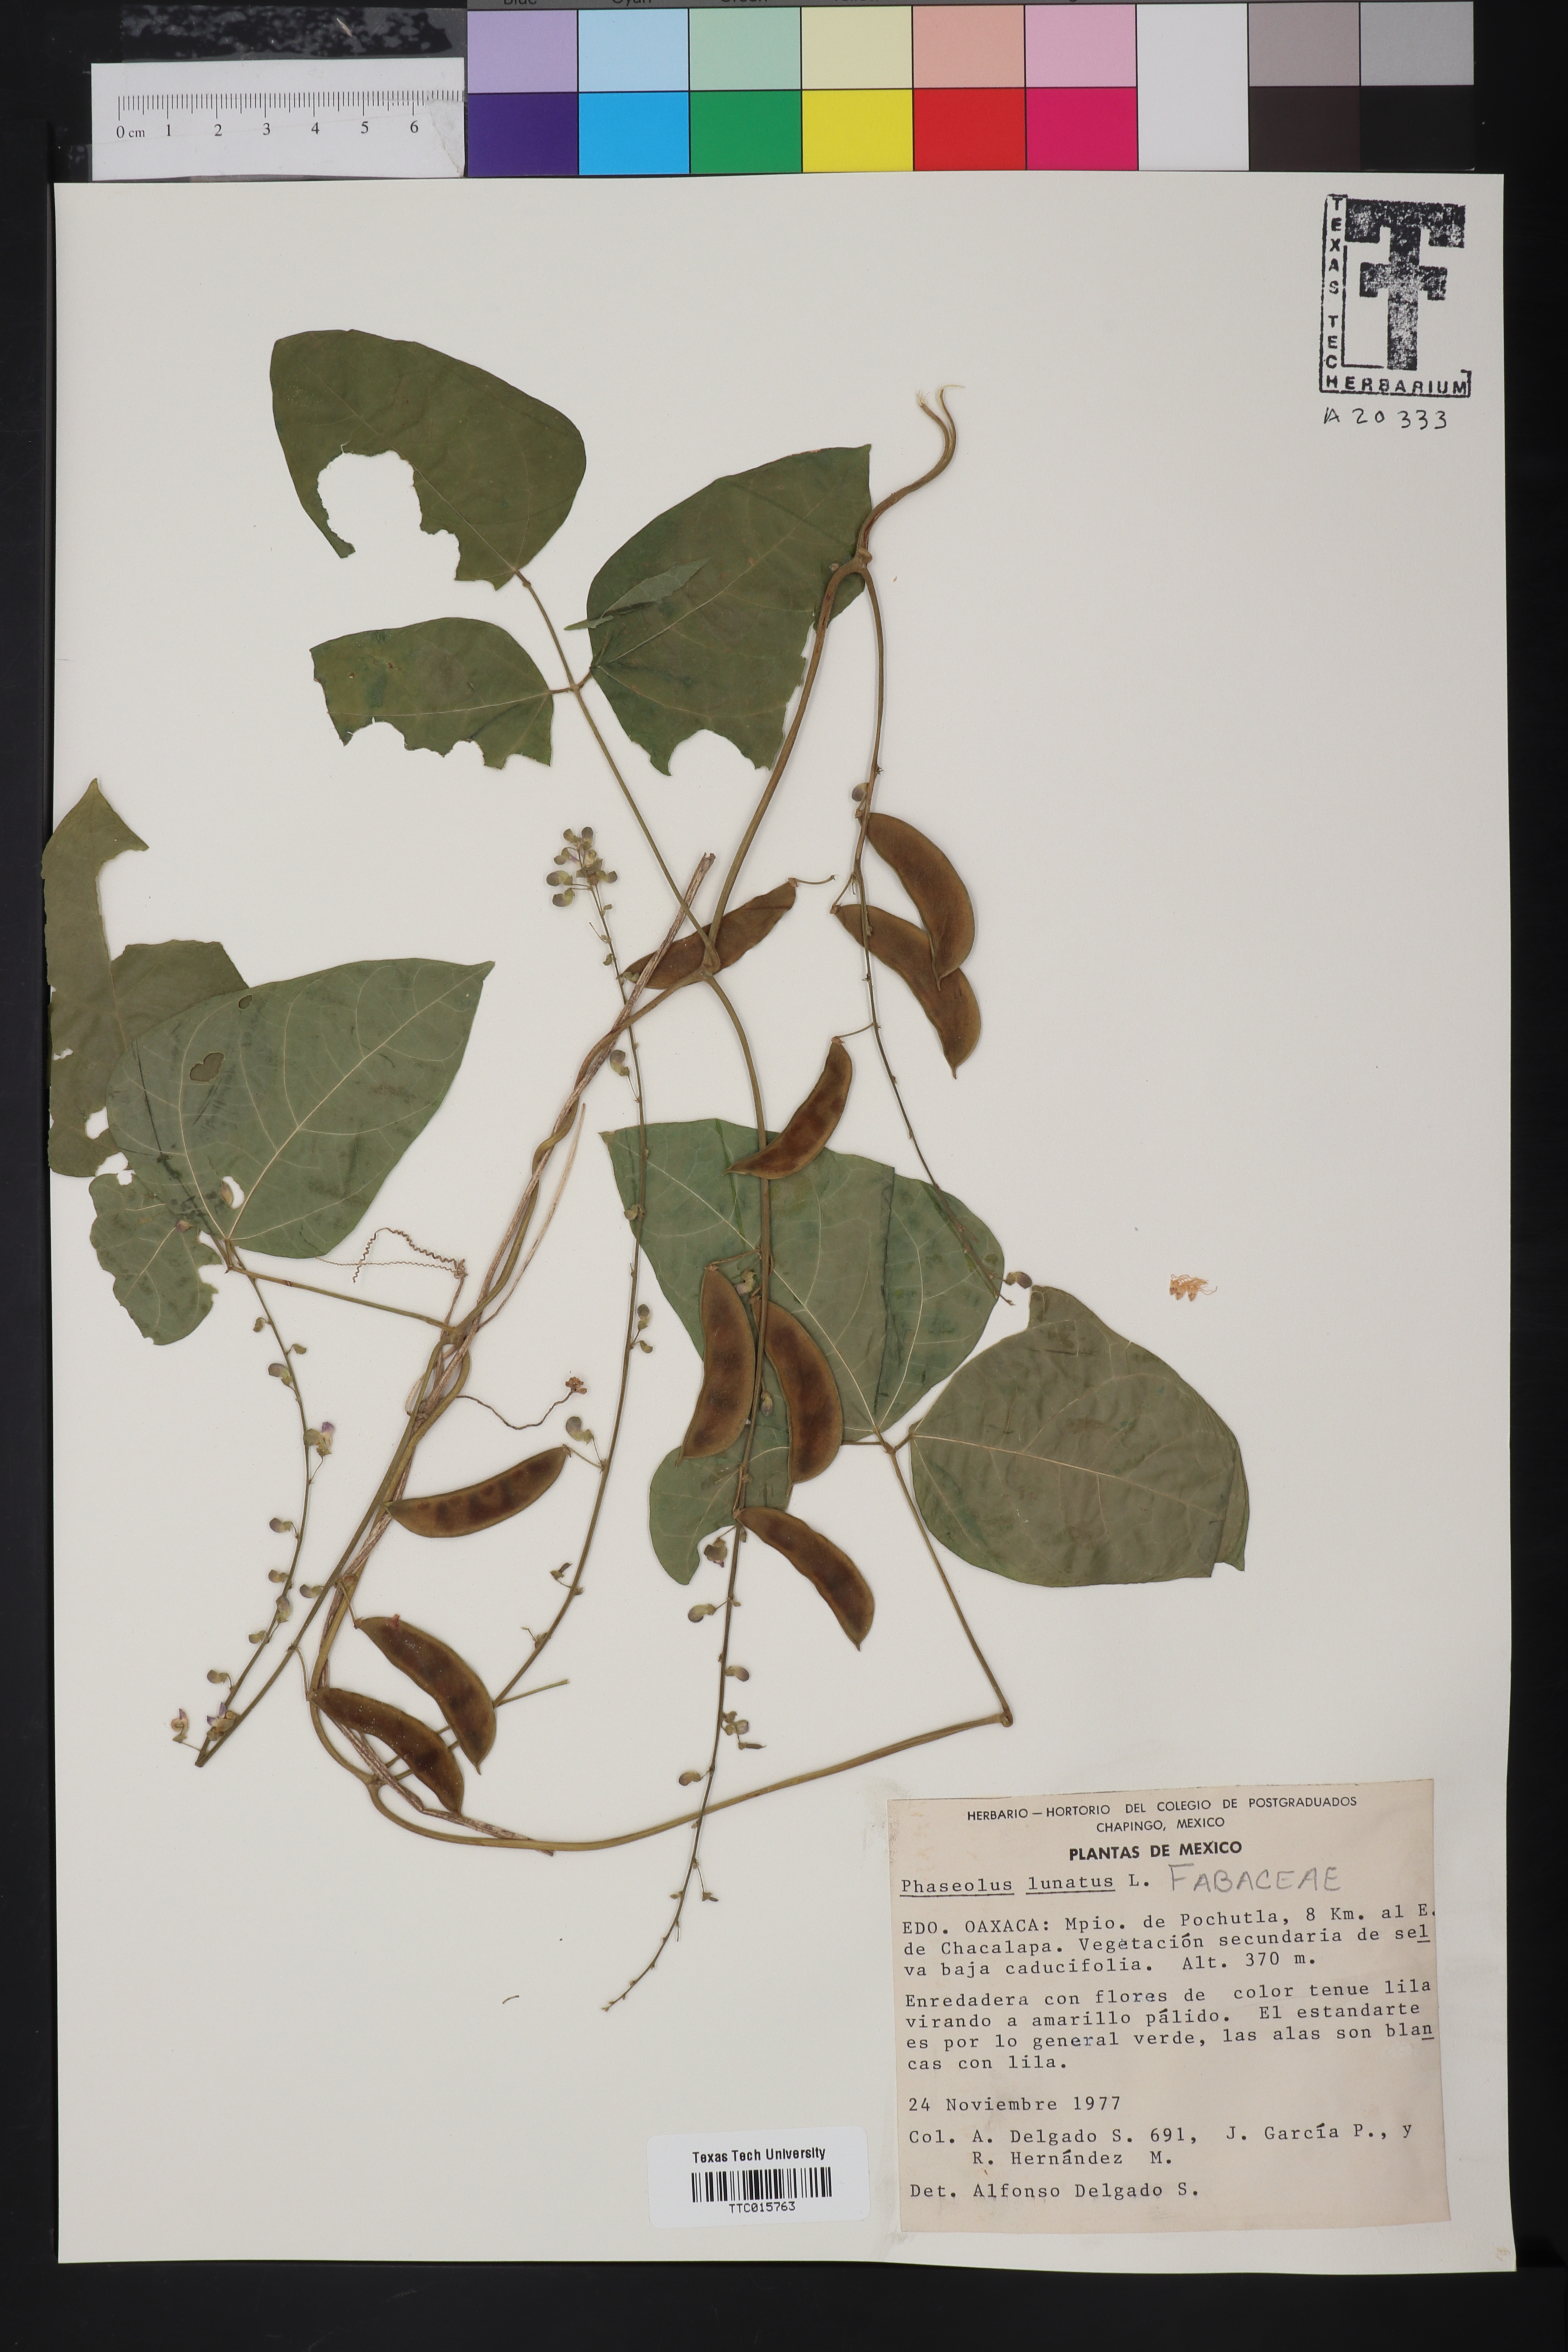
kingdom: Plantae
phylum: Tracheophyta
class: Magnoliopsida
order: Fabales
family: Fabaceae
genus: Phaseolus
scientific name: Phaseolus lunatus
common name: Sieva bean
